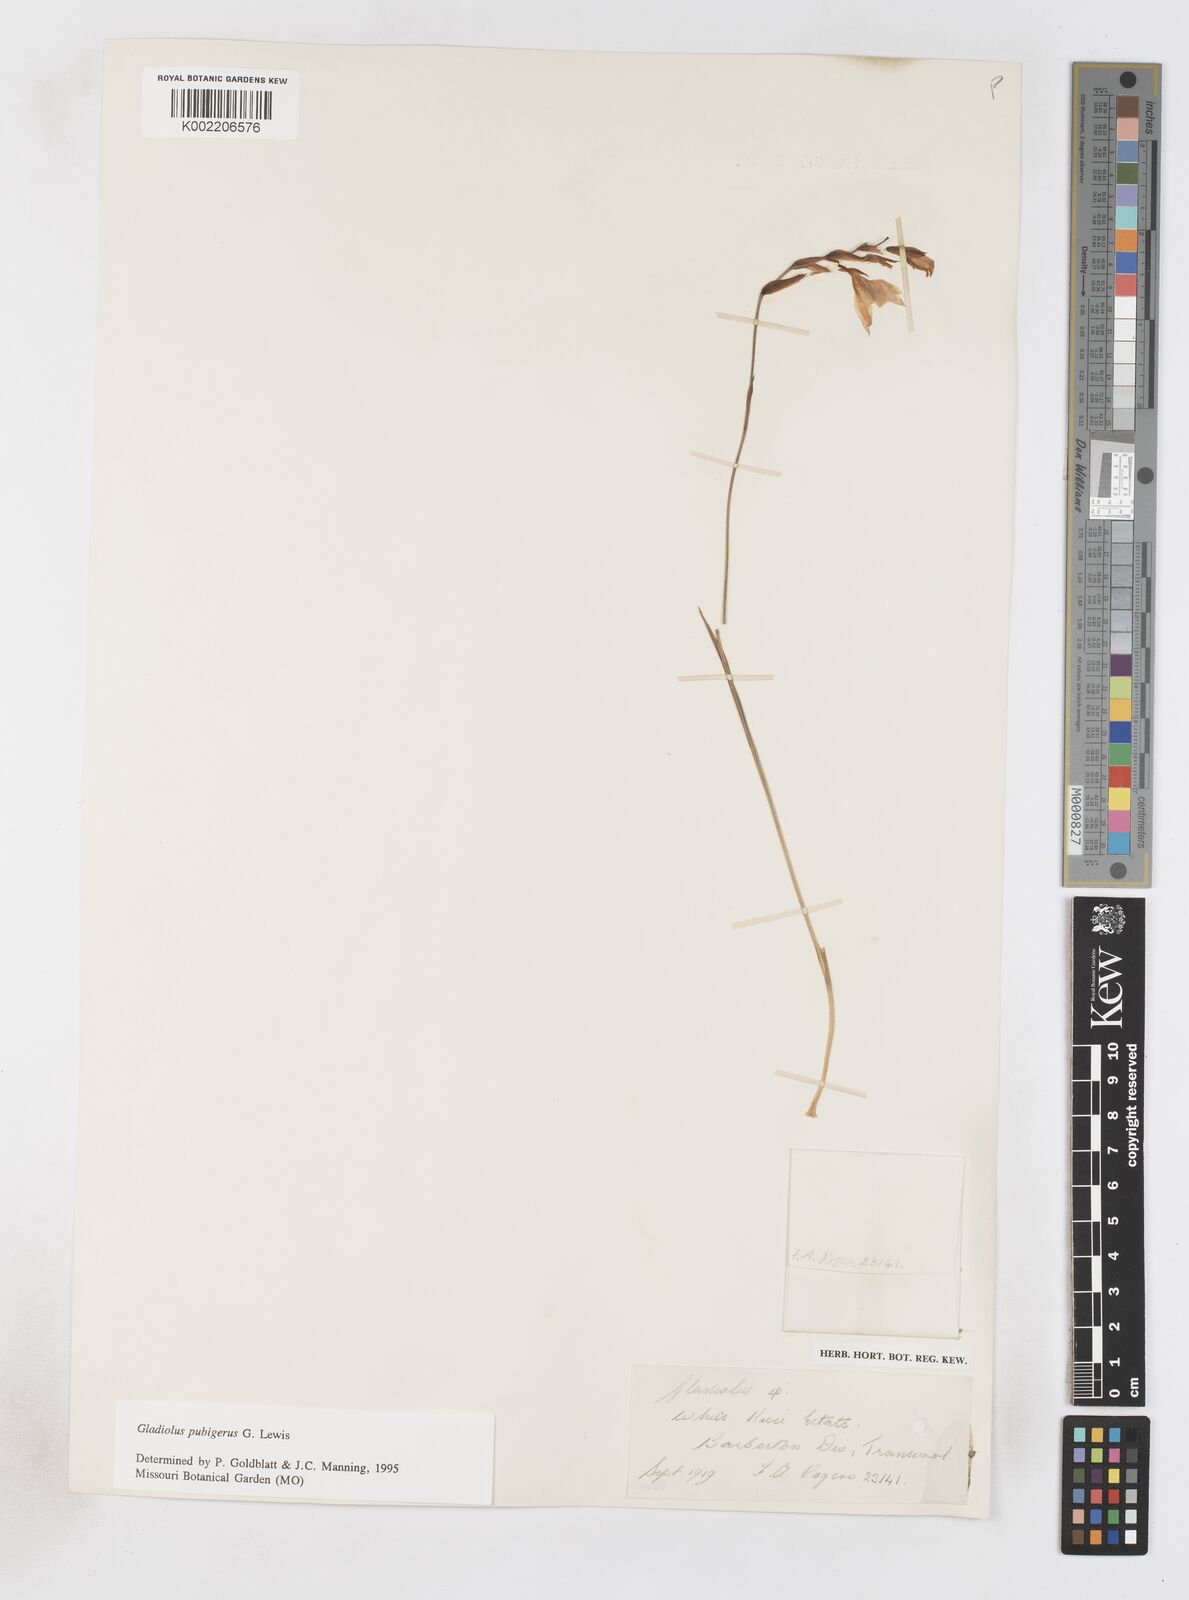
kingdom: Plantae
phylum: Tracheophyta
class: Liliopsida
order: Asparagales
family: Iridaceae
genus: Gladiolus
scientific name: Gladiolus pubigerus
